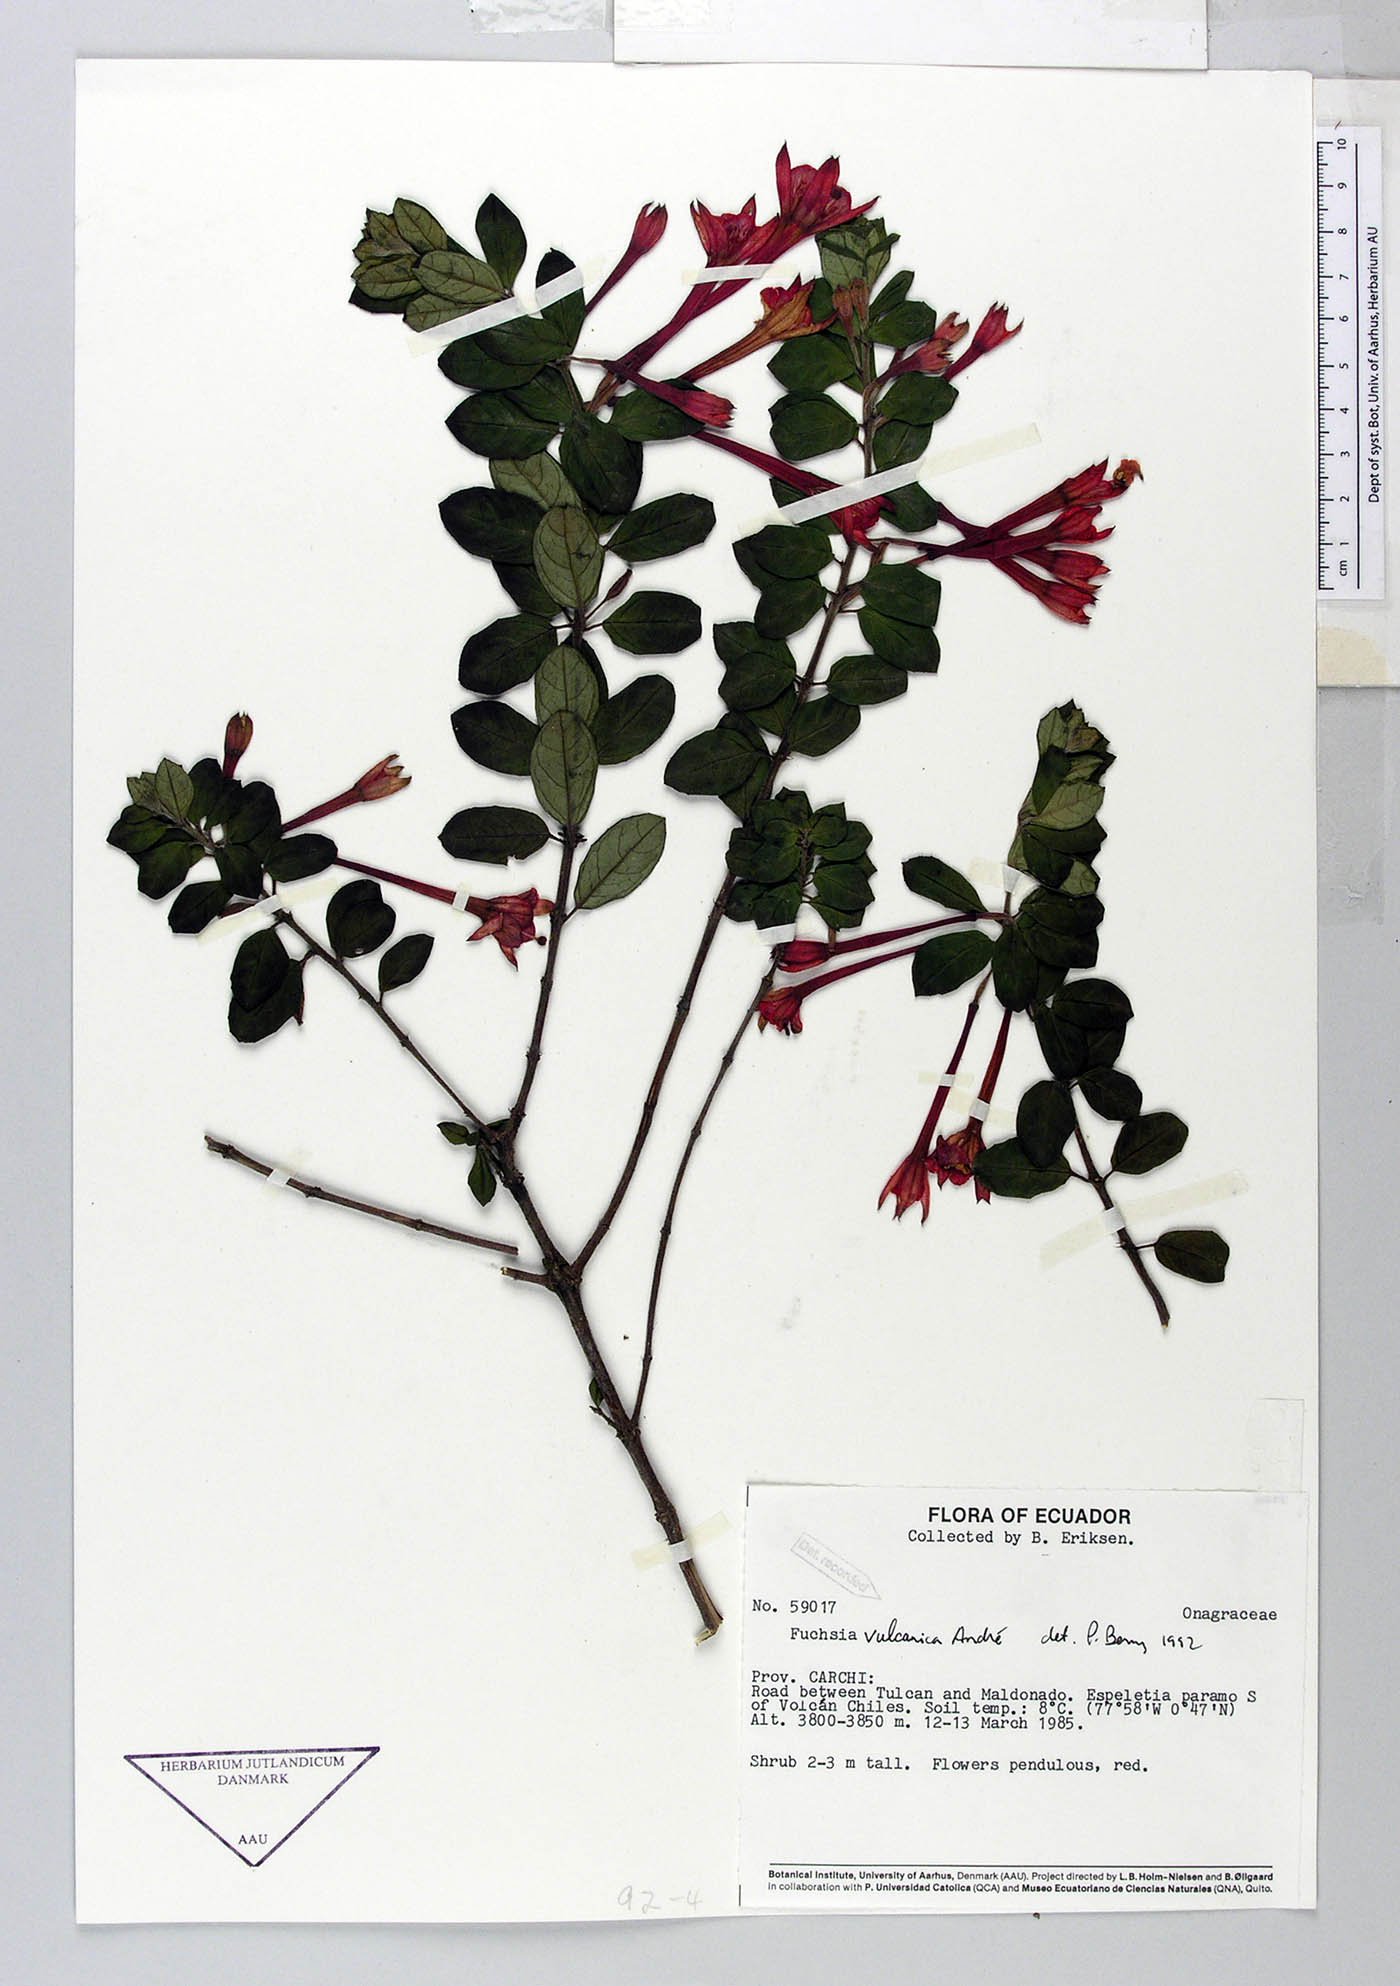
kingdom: Plantae
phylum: Tracheophyta
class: Magnoliopsida
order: Myrtales
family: Onagraceae
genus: Fuchsia
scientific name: Fuchsia vulcanica
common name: Volcan's fuchsia
